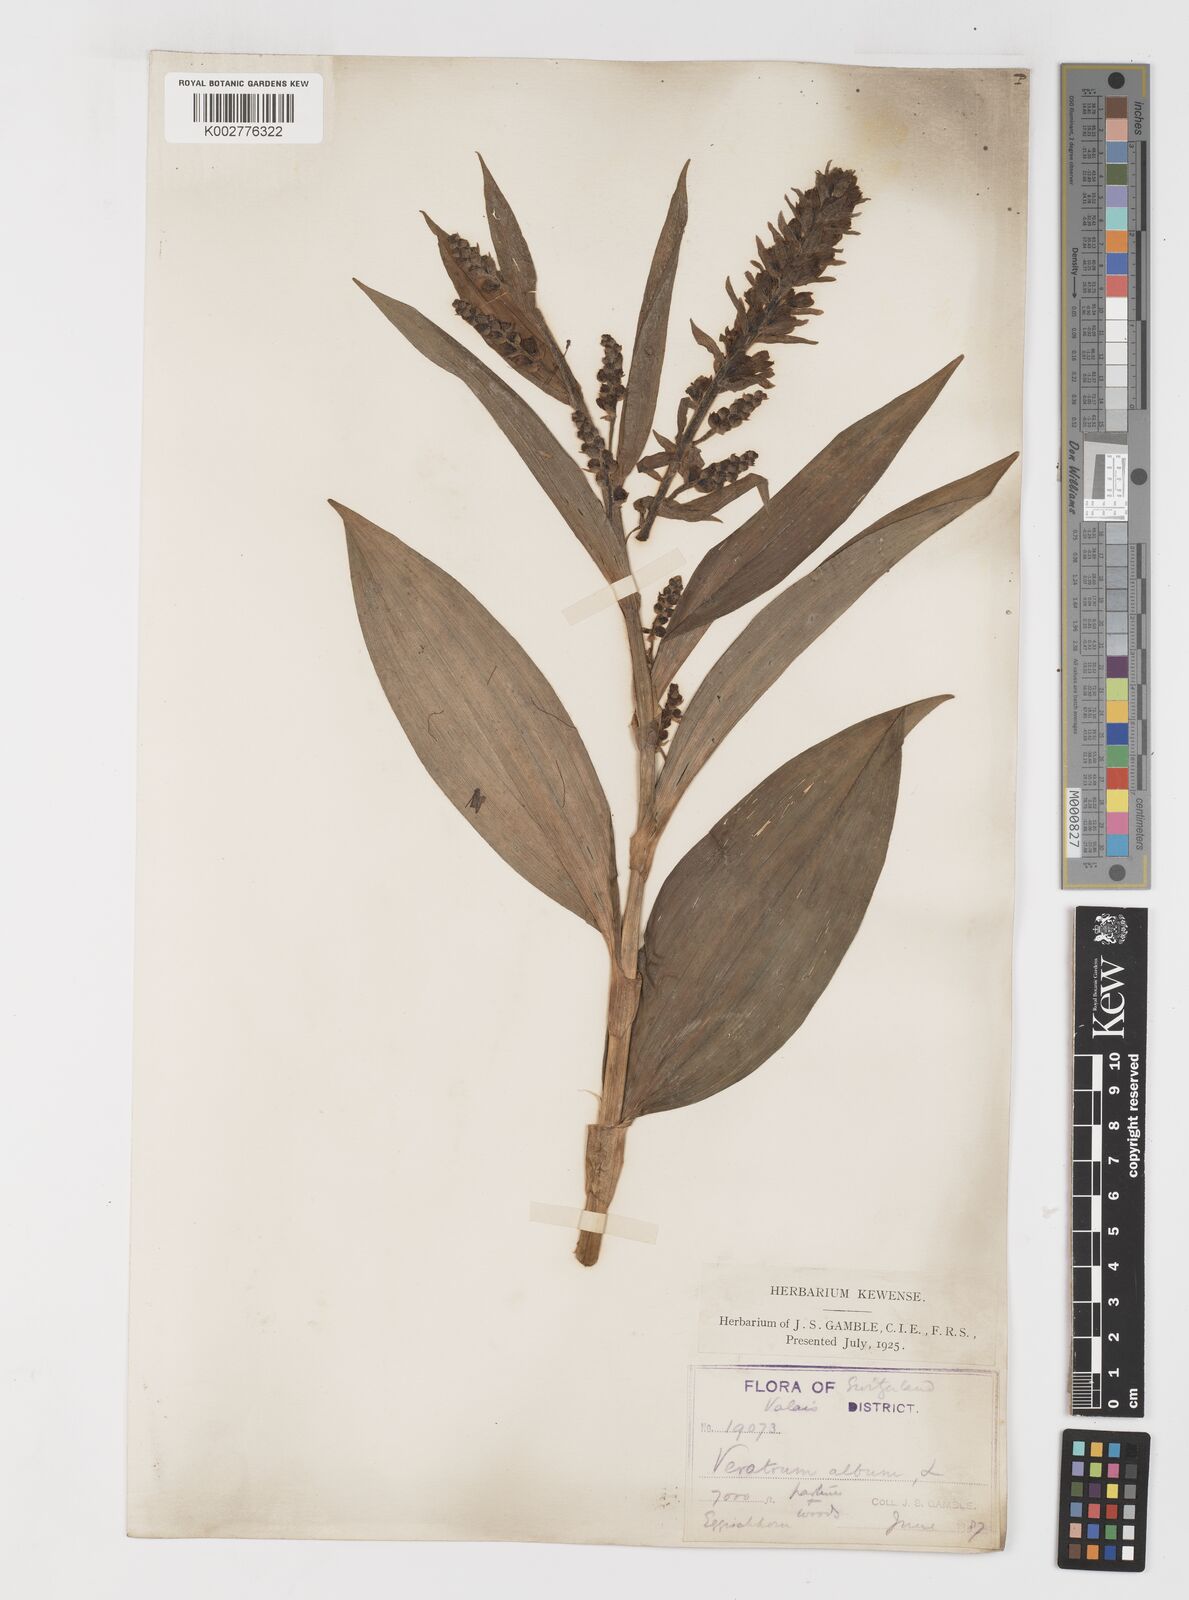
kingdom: Plantae
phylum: Tracheophyta
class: Liliopsida
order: Liliales
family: Melanthiaceae
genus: Veratrum
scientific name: Veratrum album
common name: White veratrum
